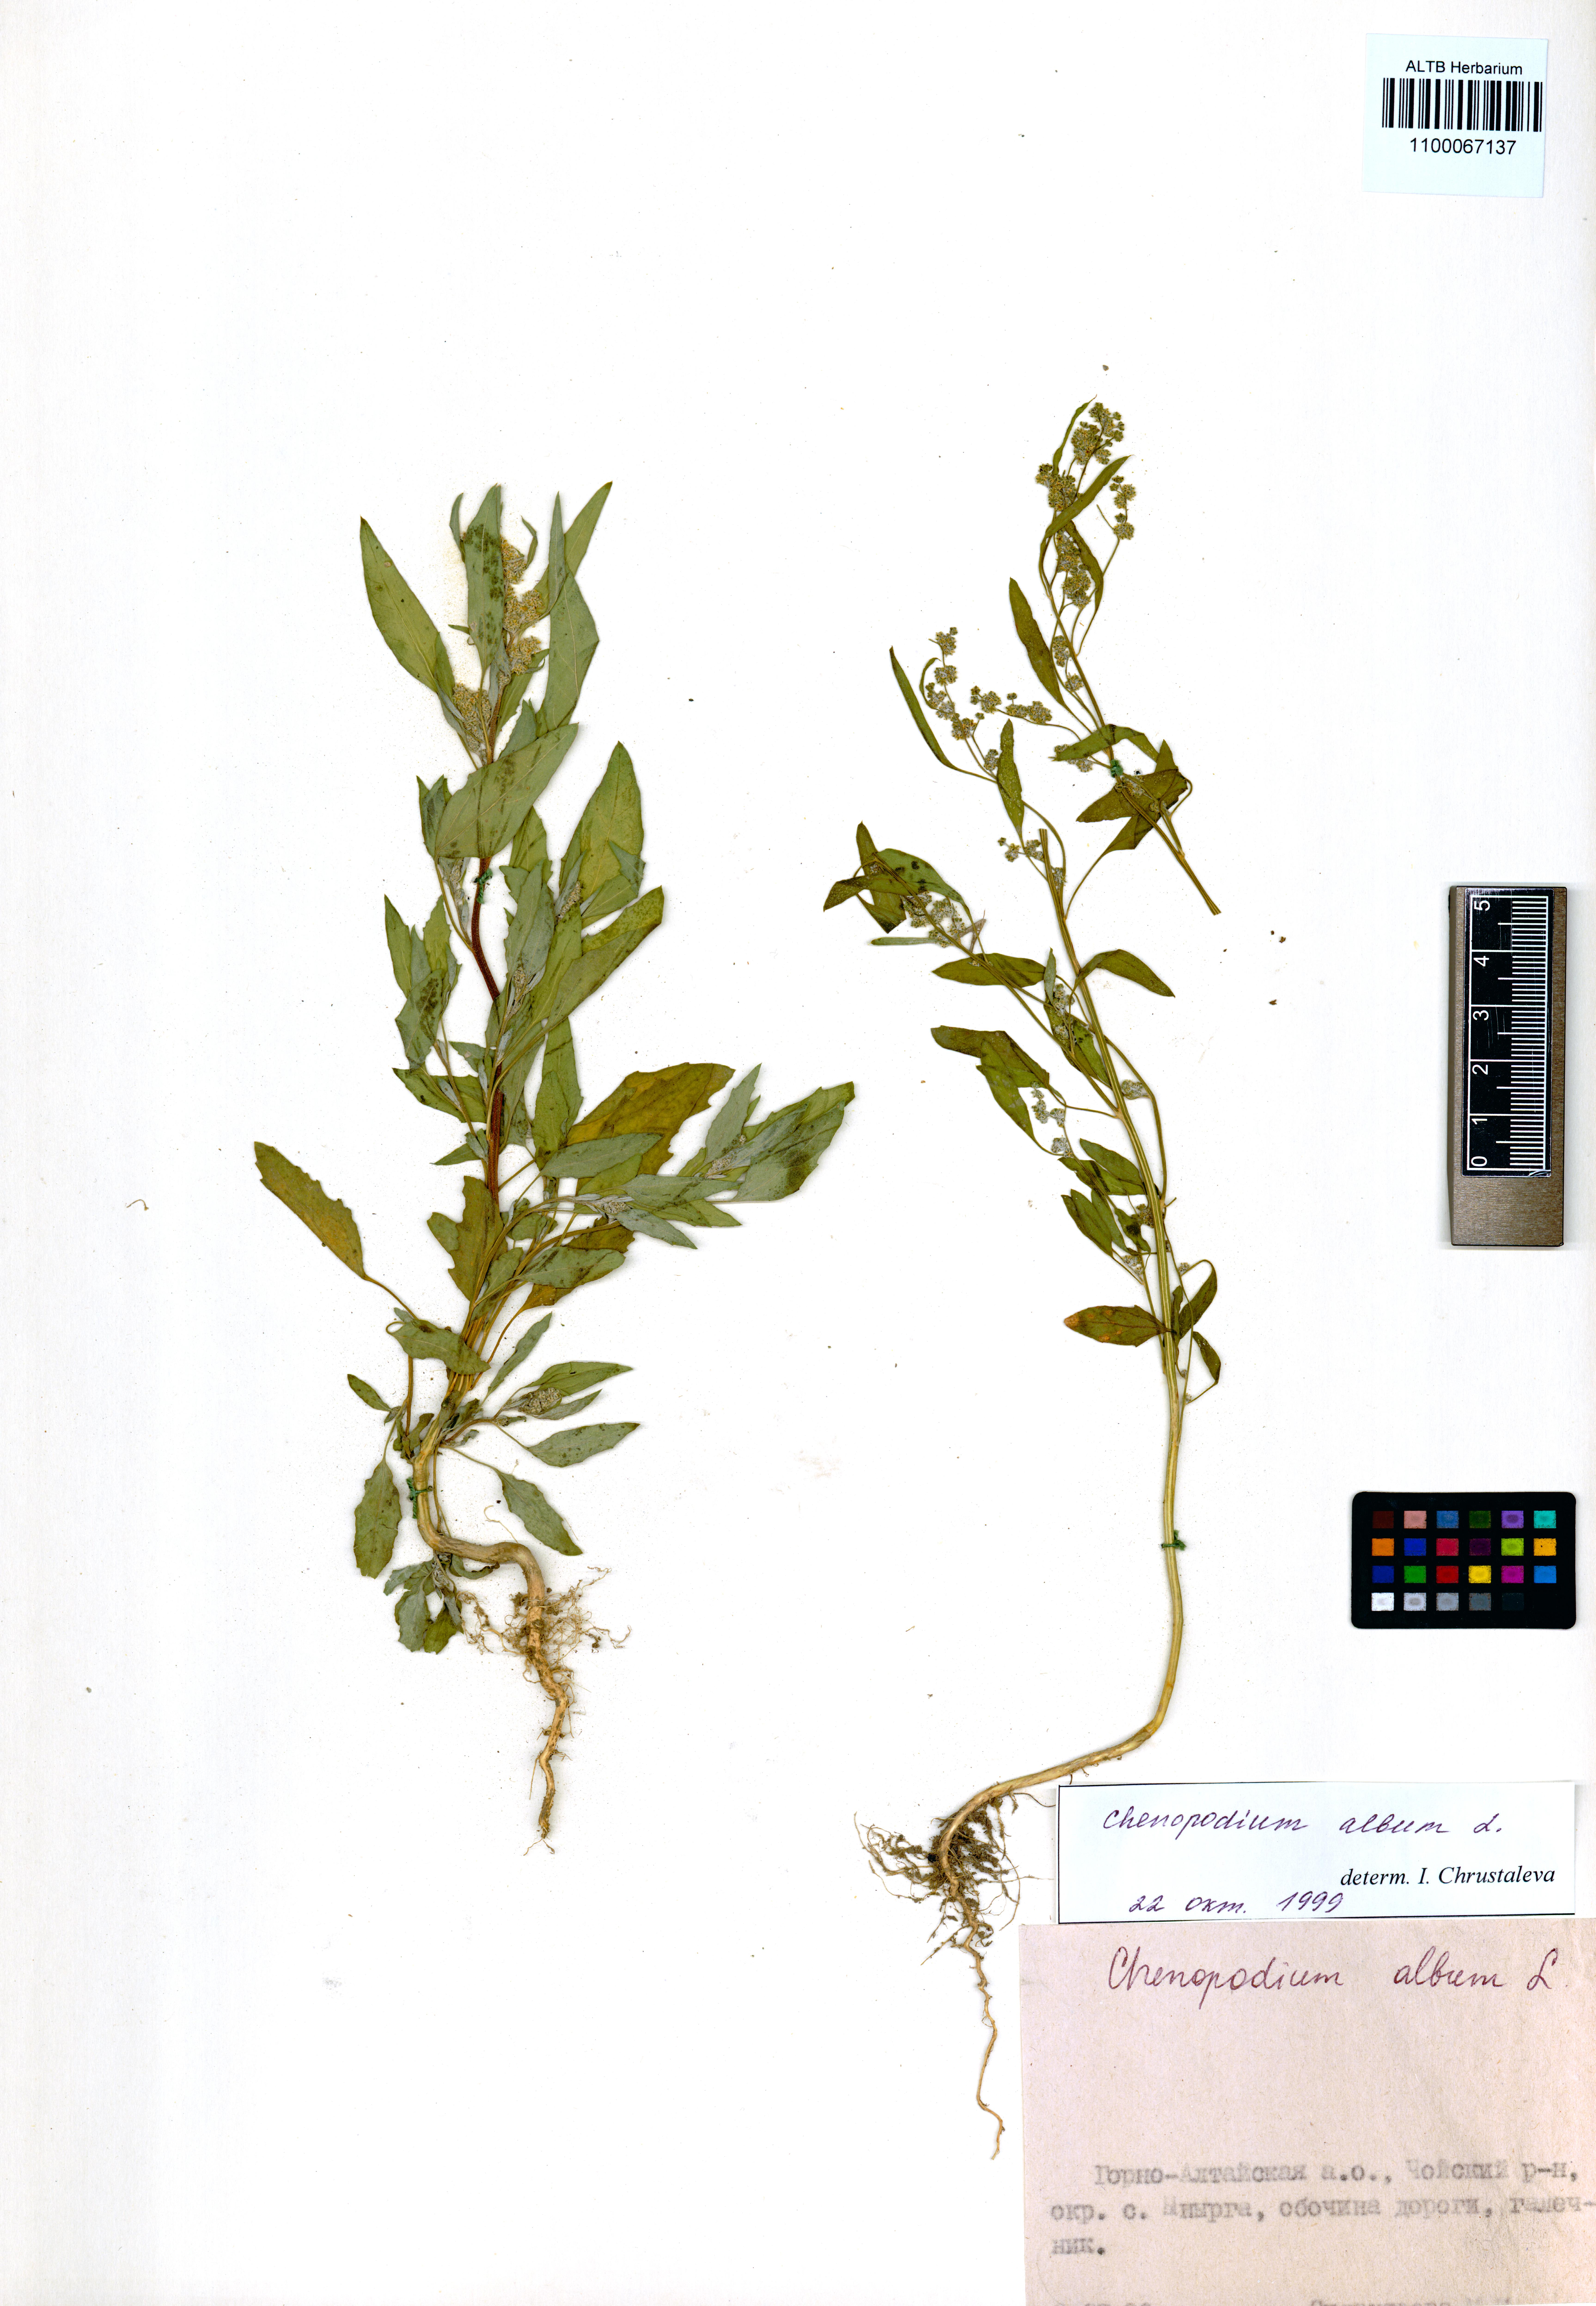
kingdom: Plantae
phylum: Tracheophyta
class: Magnoliopsida
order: Caryophyllales
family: Amaranthaceae
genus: Chenopodium
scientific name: Chenopodium album
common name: Fat-hen
